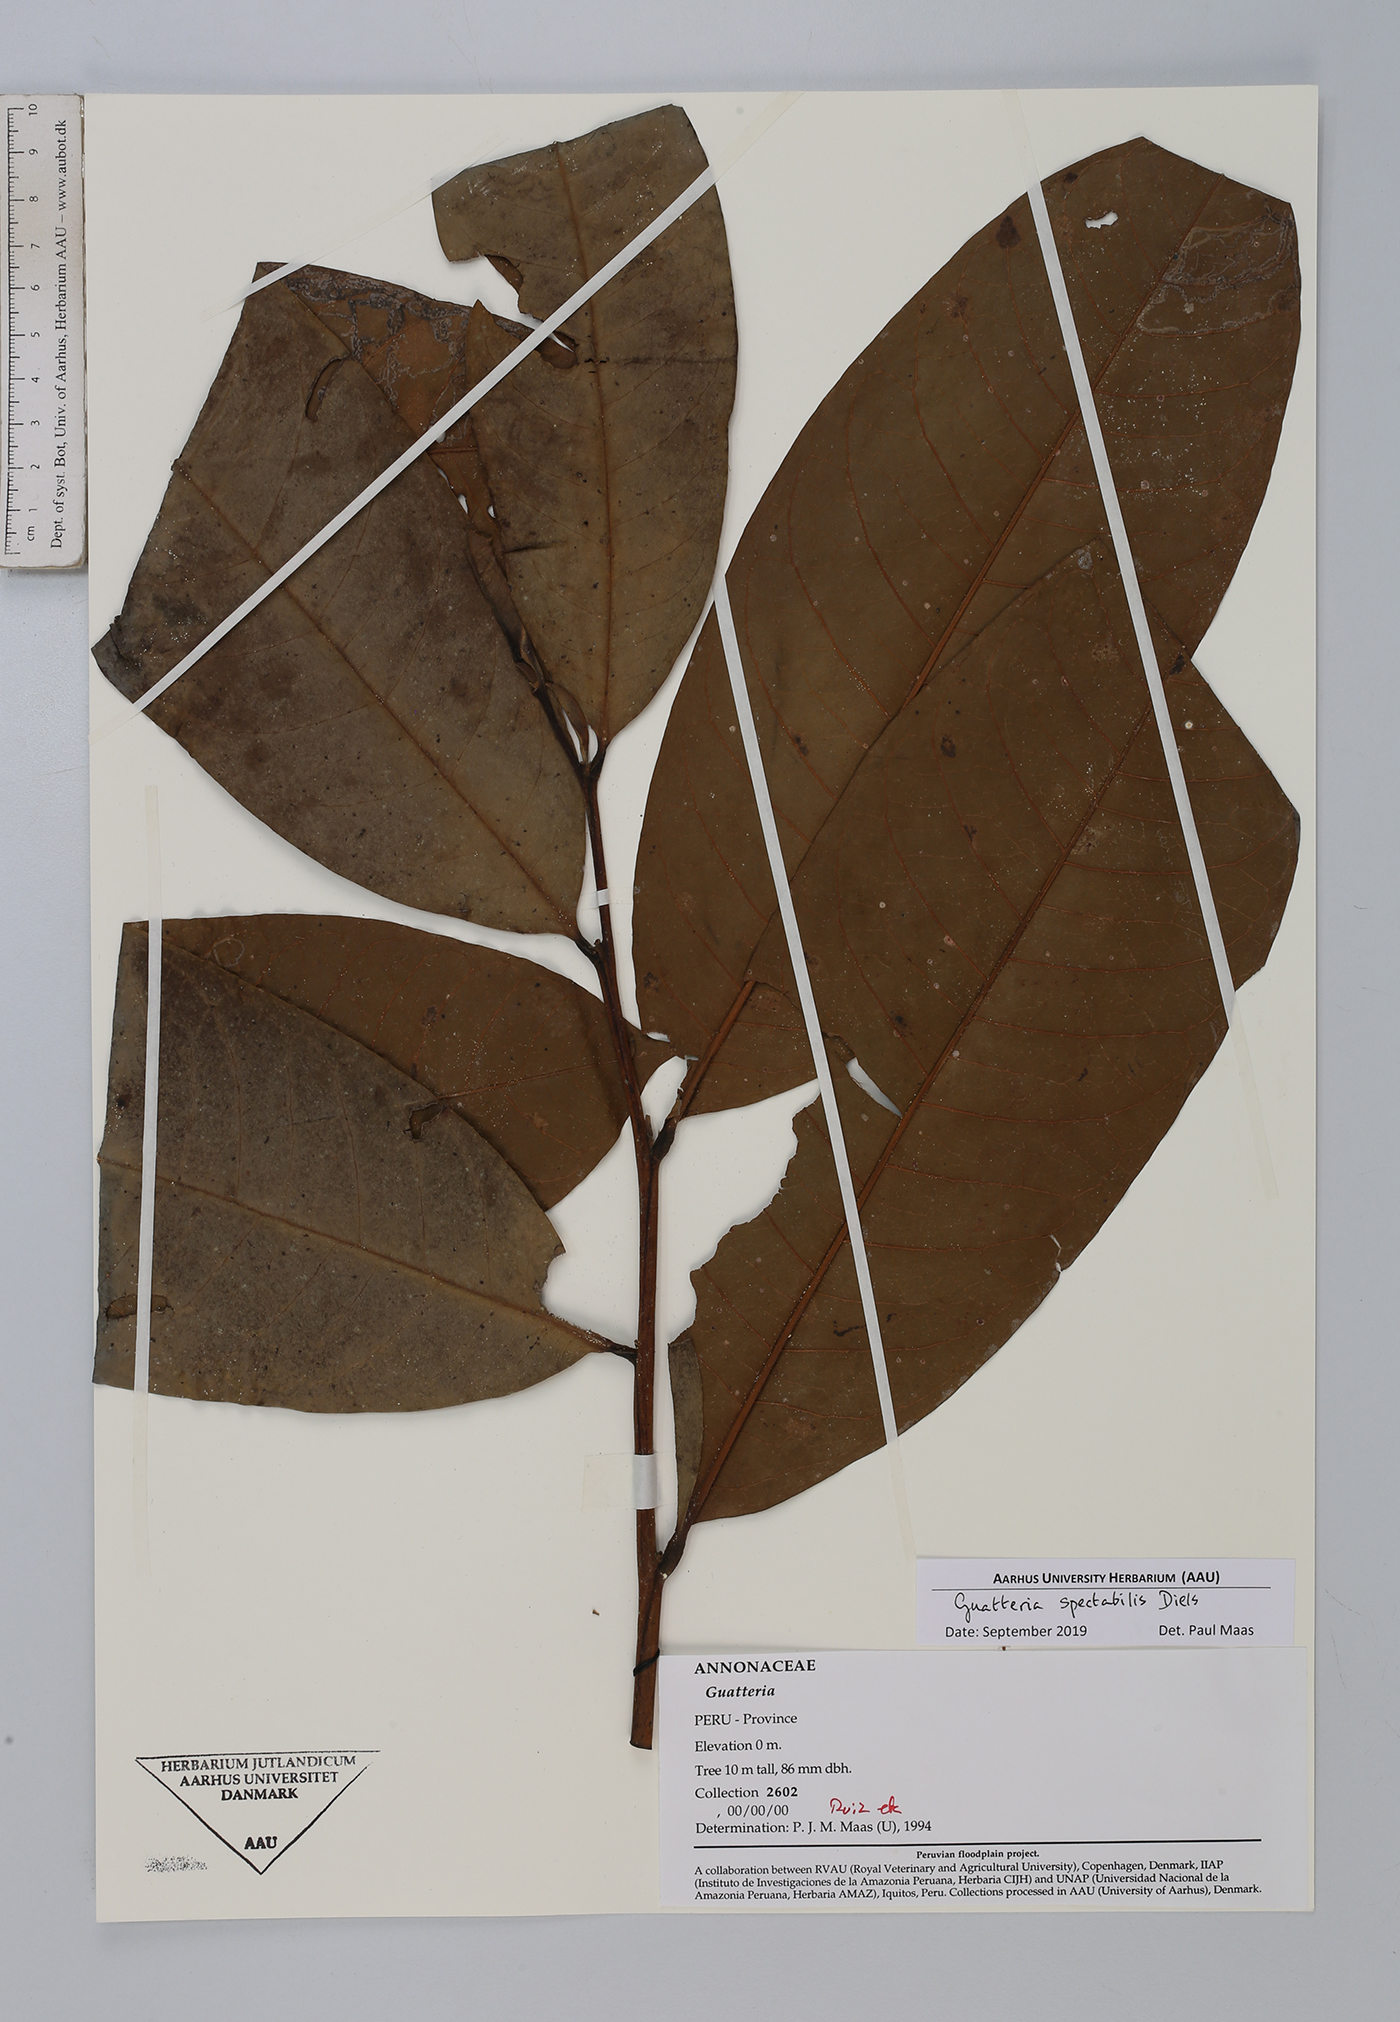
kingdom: Plantae
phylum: Tracheophyta
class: Magnoliopsida
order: Magnoliales
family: Annonaceae
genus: Guatteria
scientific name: Guatteria spectabilis
